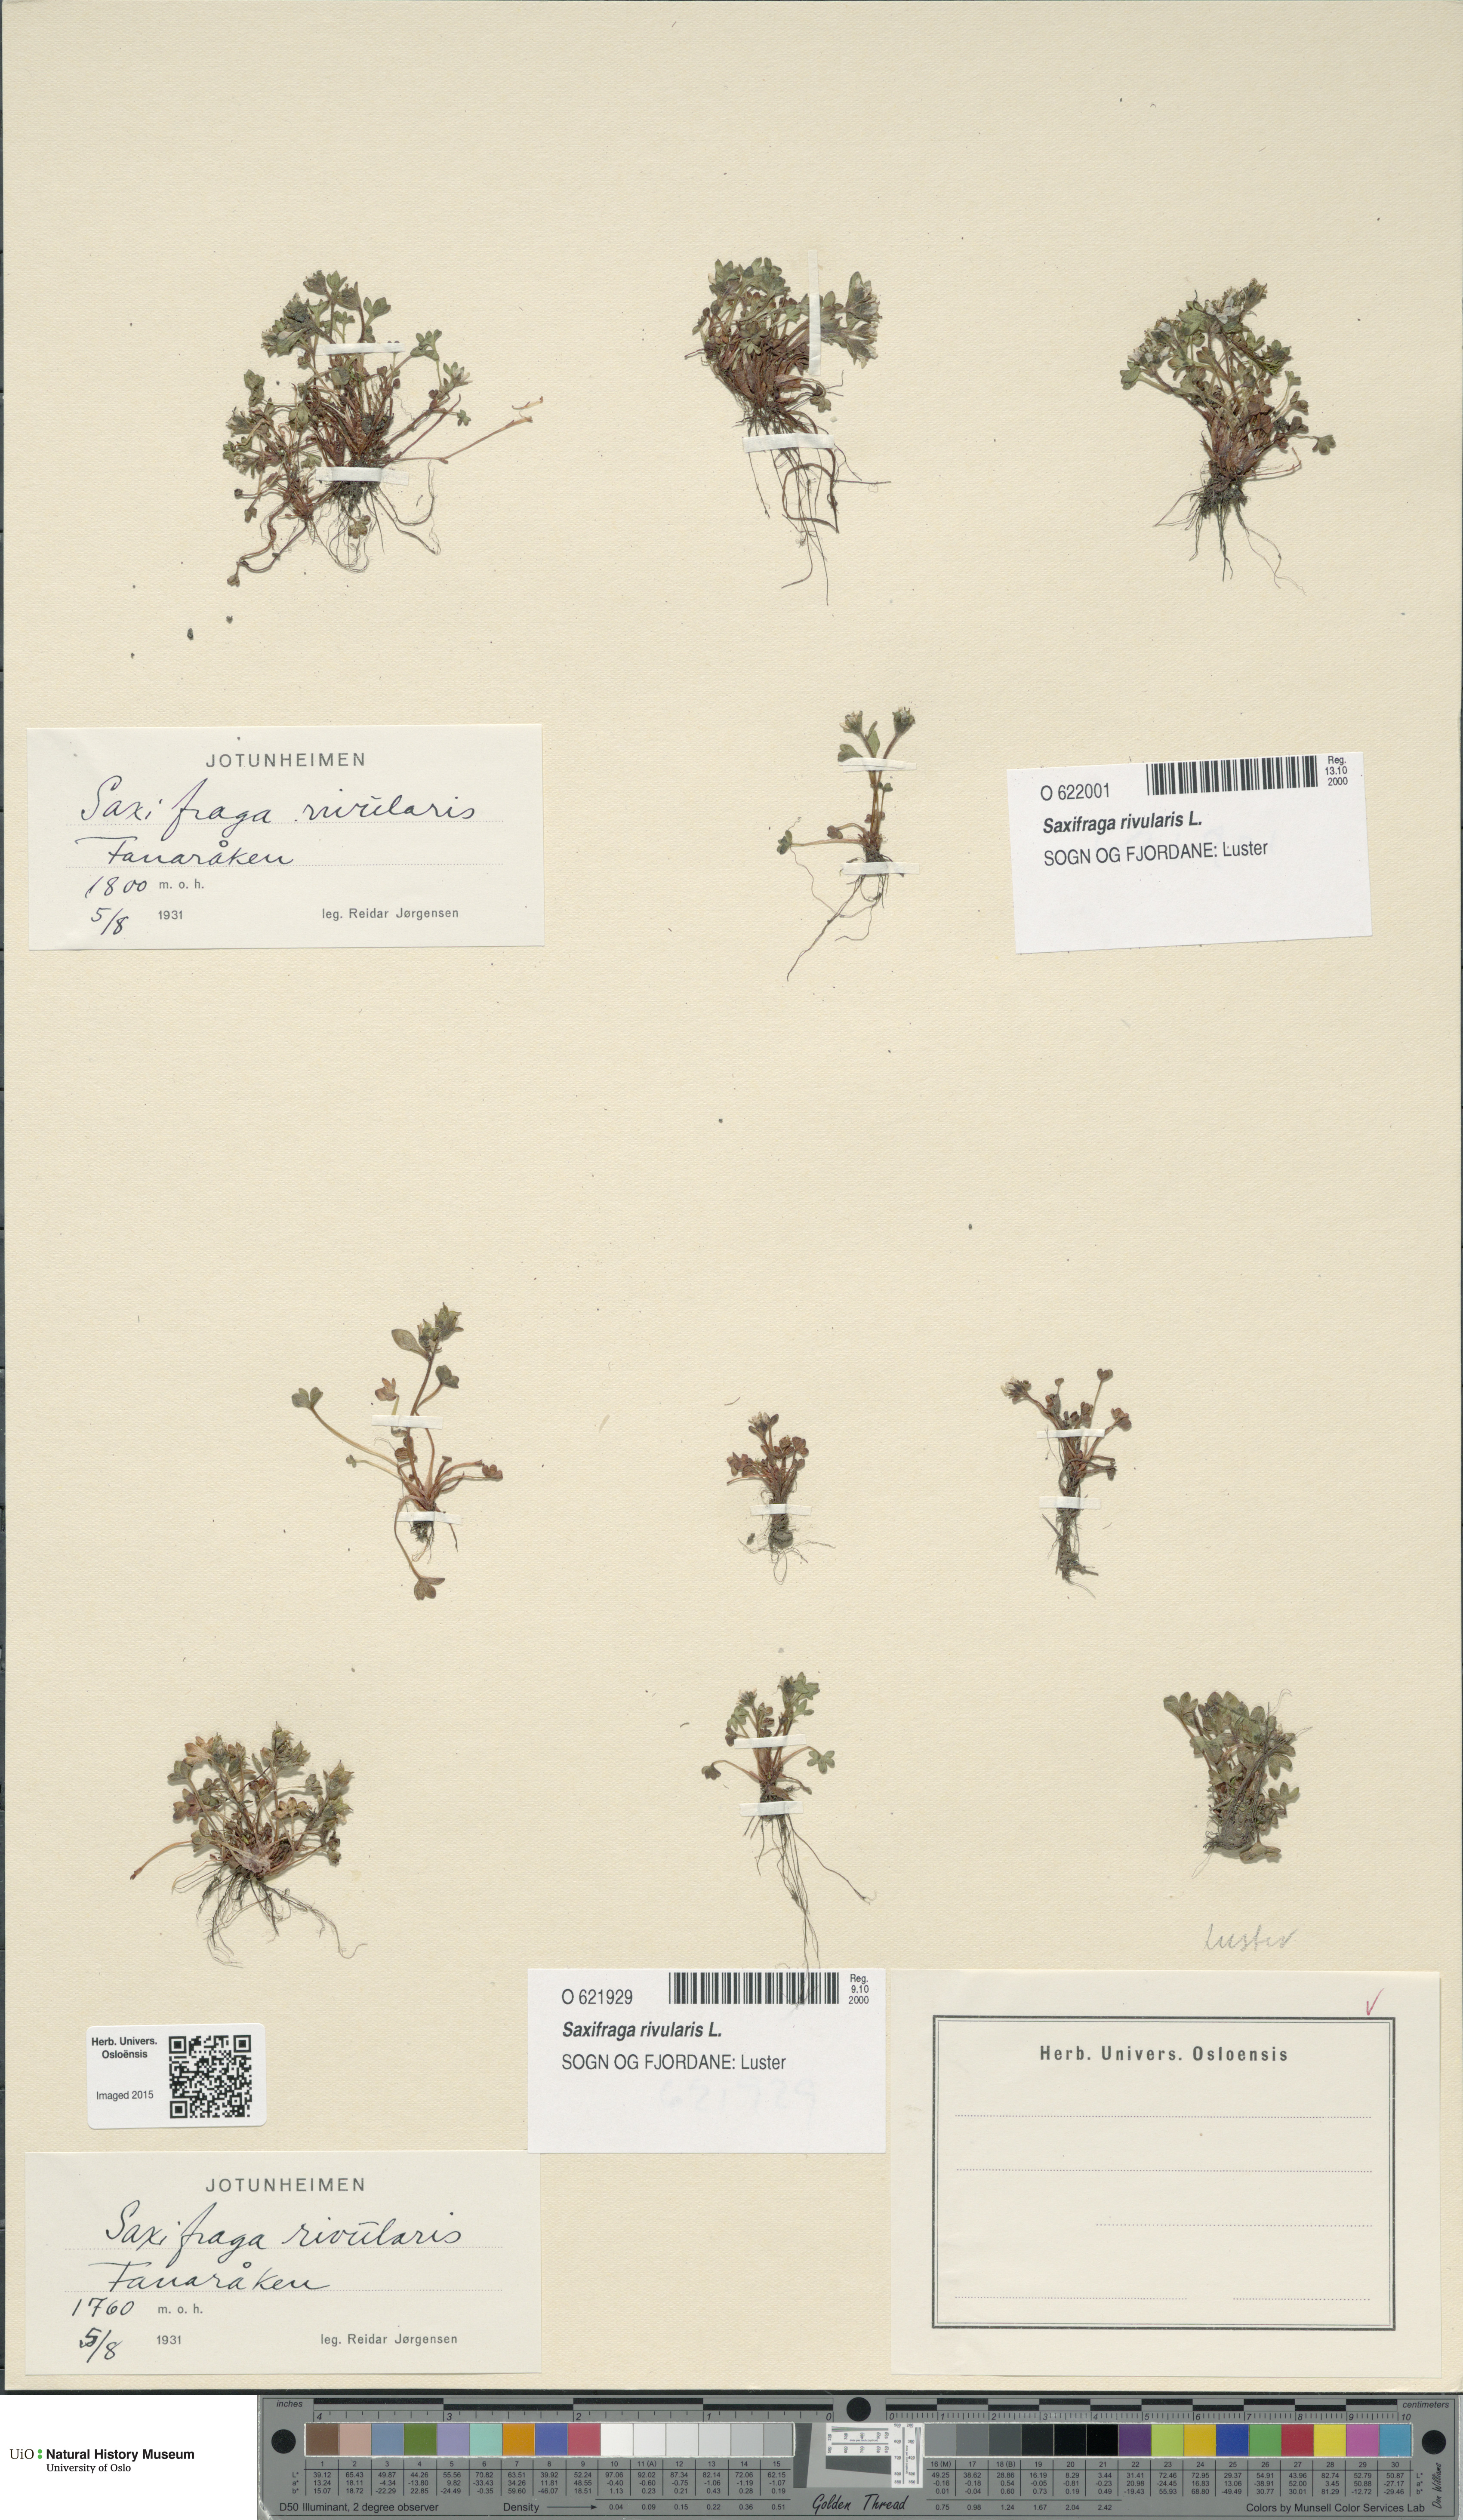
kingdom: Plantae
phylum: Tracheophyta
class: Magnoliopsida
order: Saxifragales
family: Saxifragaceae
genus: Saxifraga
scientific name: Saxifraga rivularis
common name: Highland saxifrage
